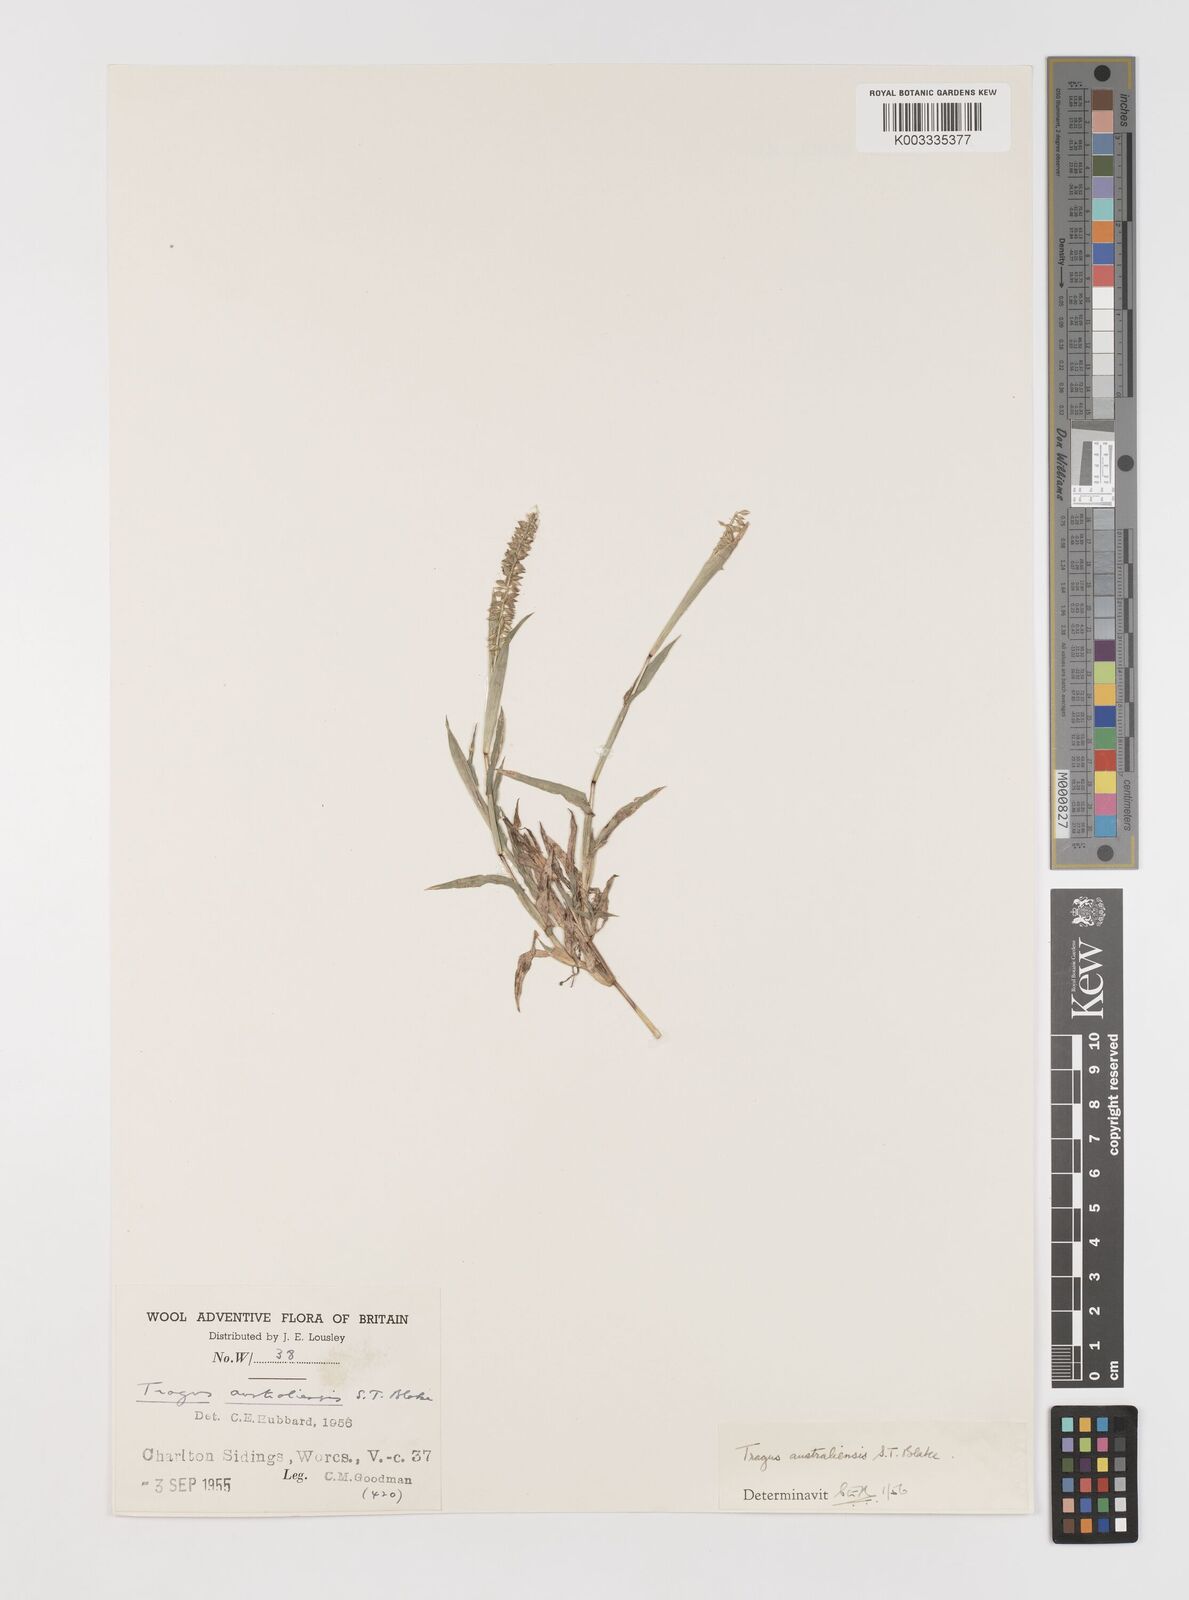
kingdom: Plantae
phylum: Tracheophyta
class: Liliopsida
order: Poales
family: Poaceae
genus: Tragus
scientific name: Tragus australianus
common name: Australian bur-grass
